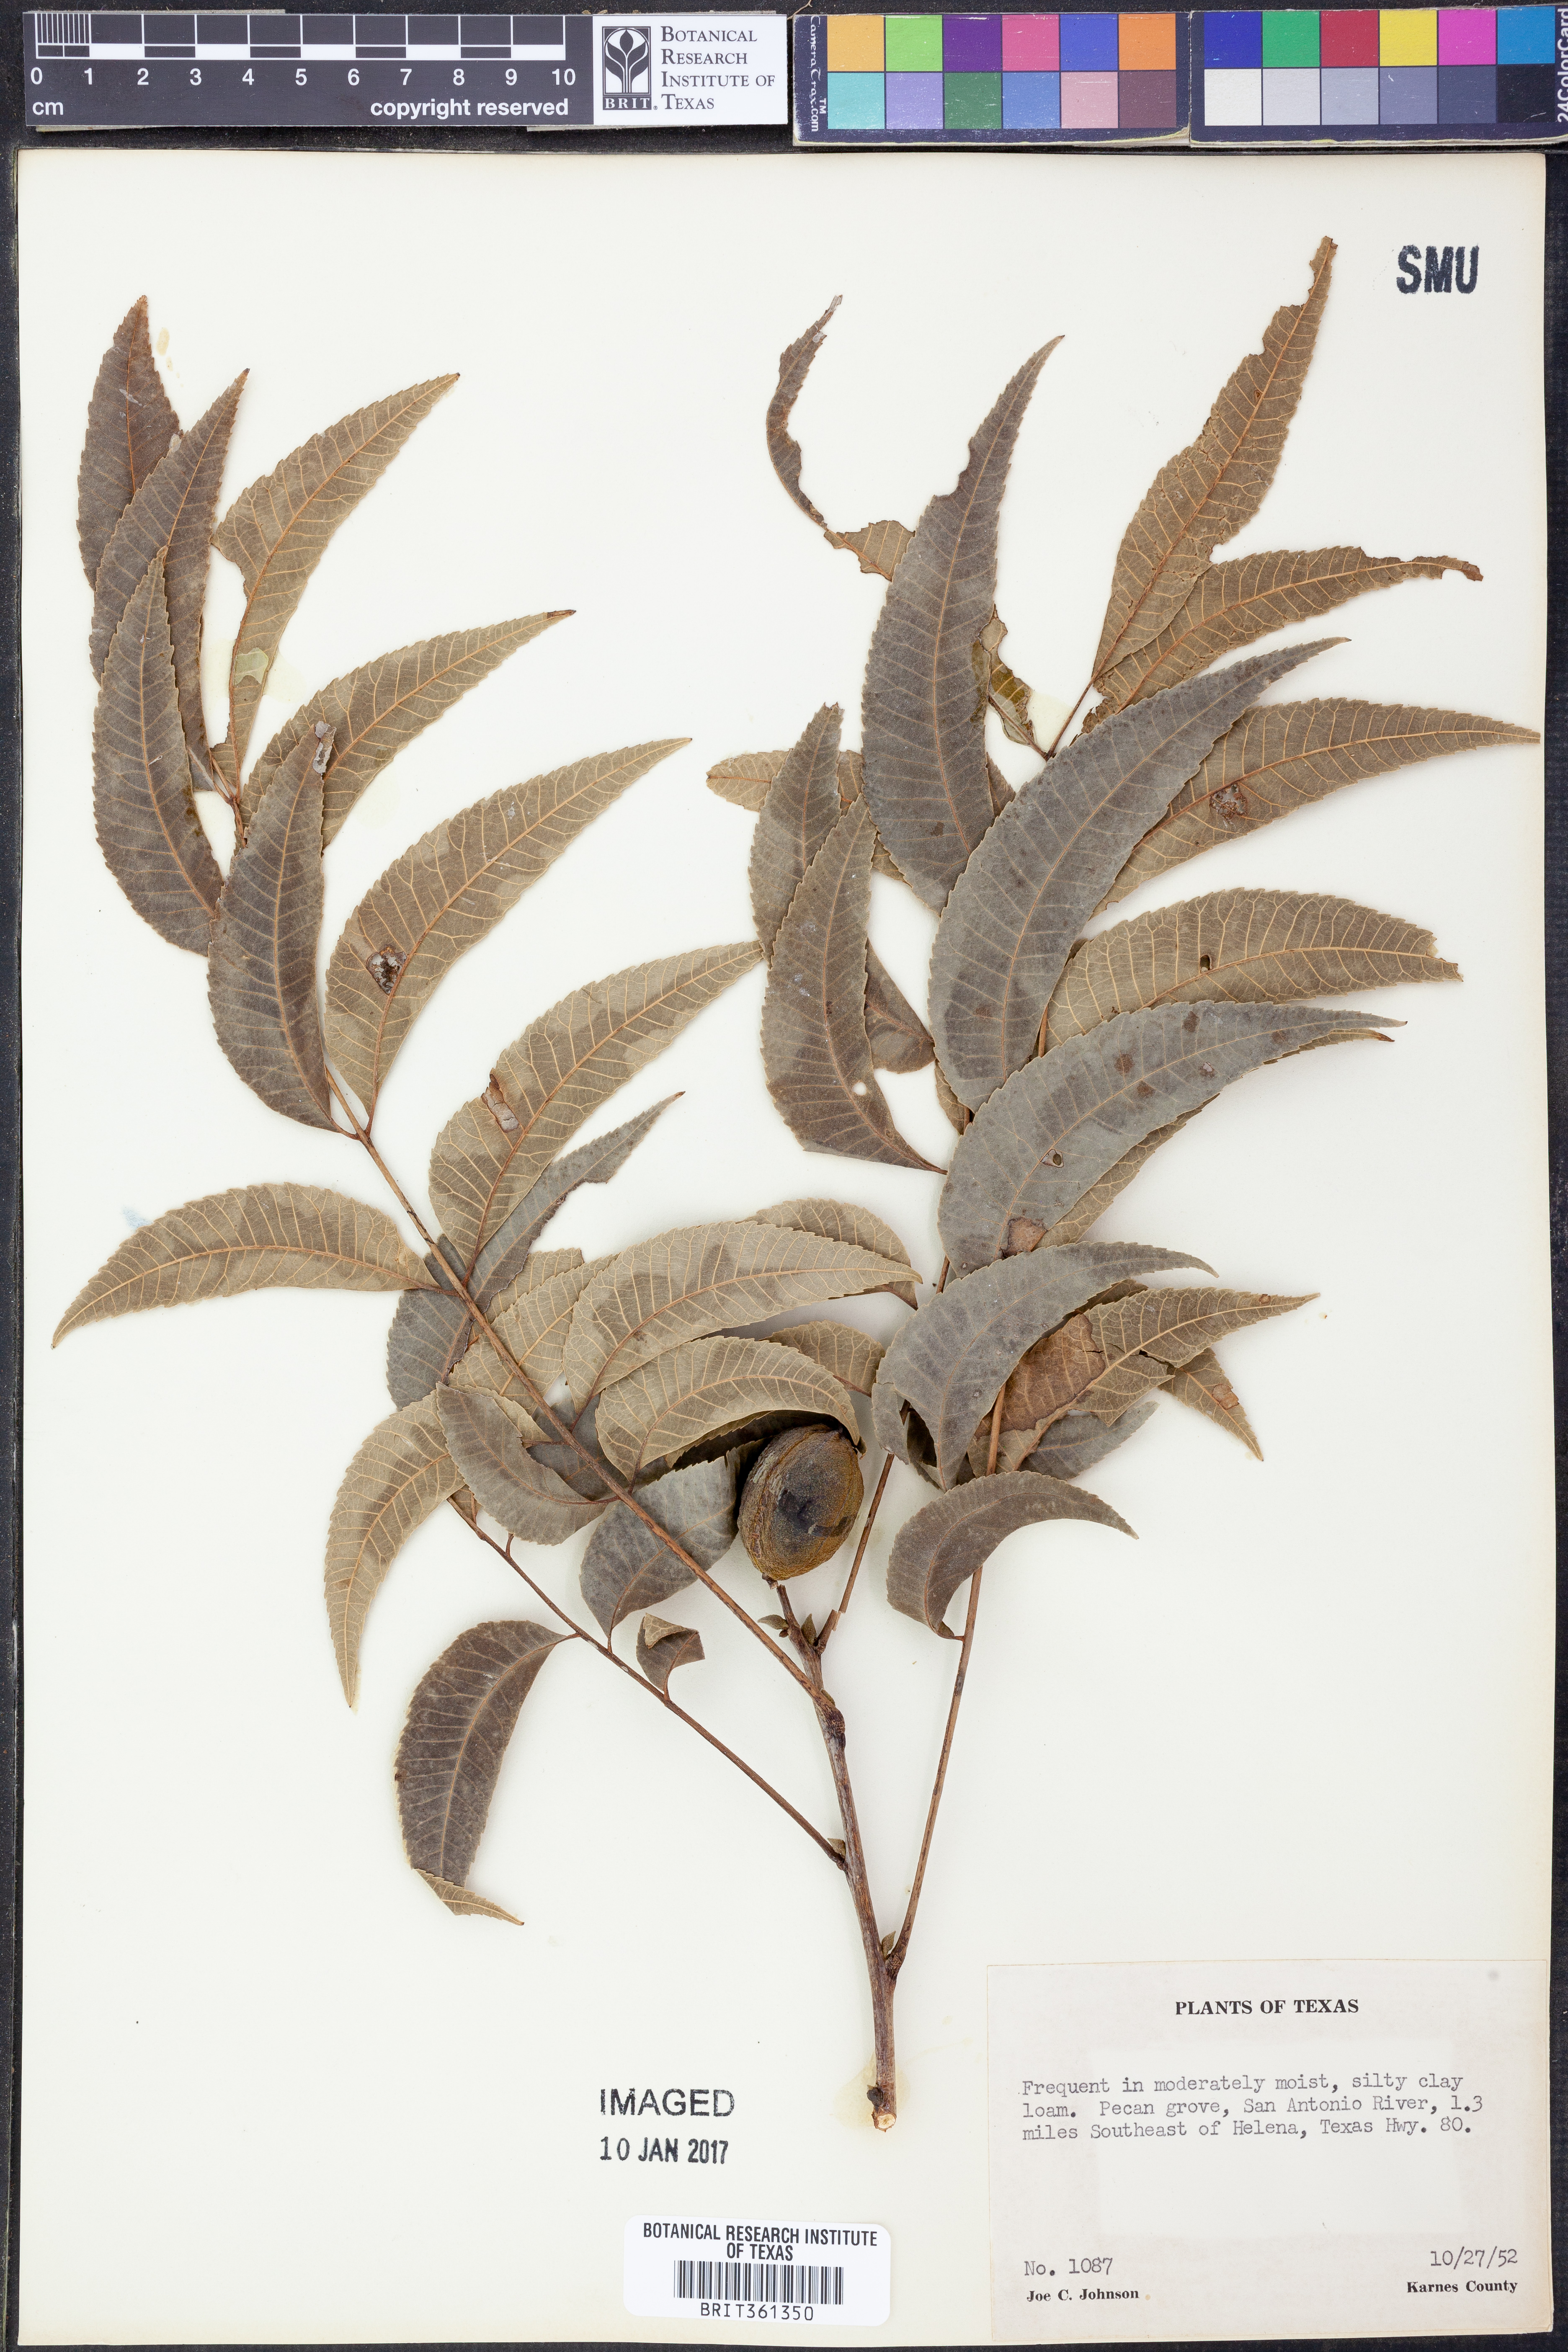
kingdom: Plantae
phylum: Tracheophyta
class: Magnoliopsida
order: Fagales
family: Juglandaceae
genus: Carya
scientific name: Carya
